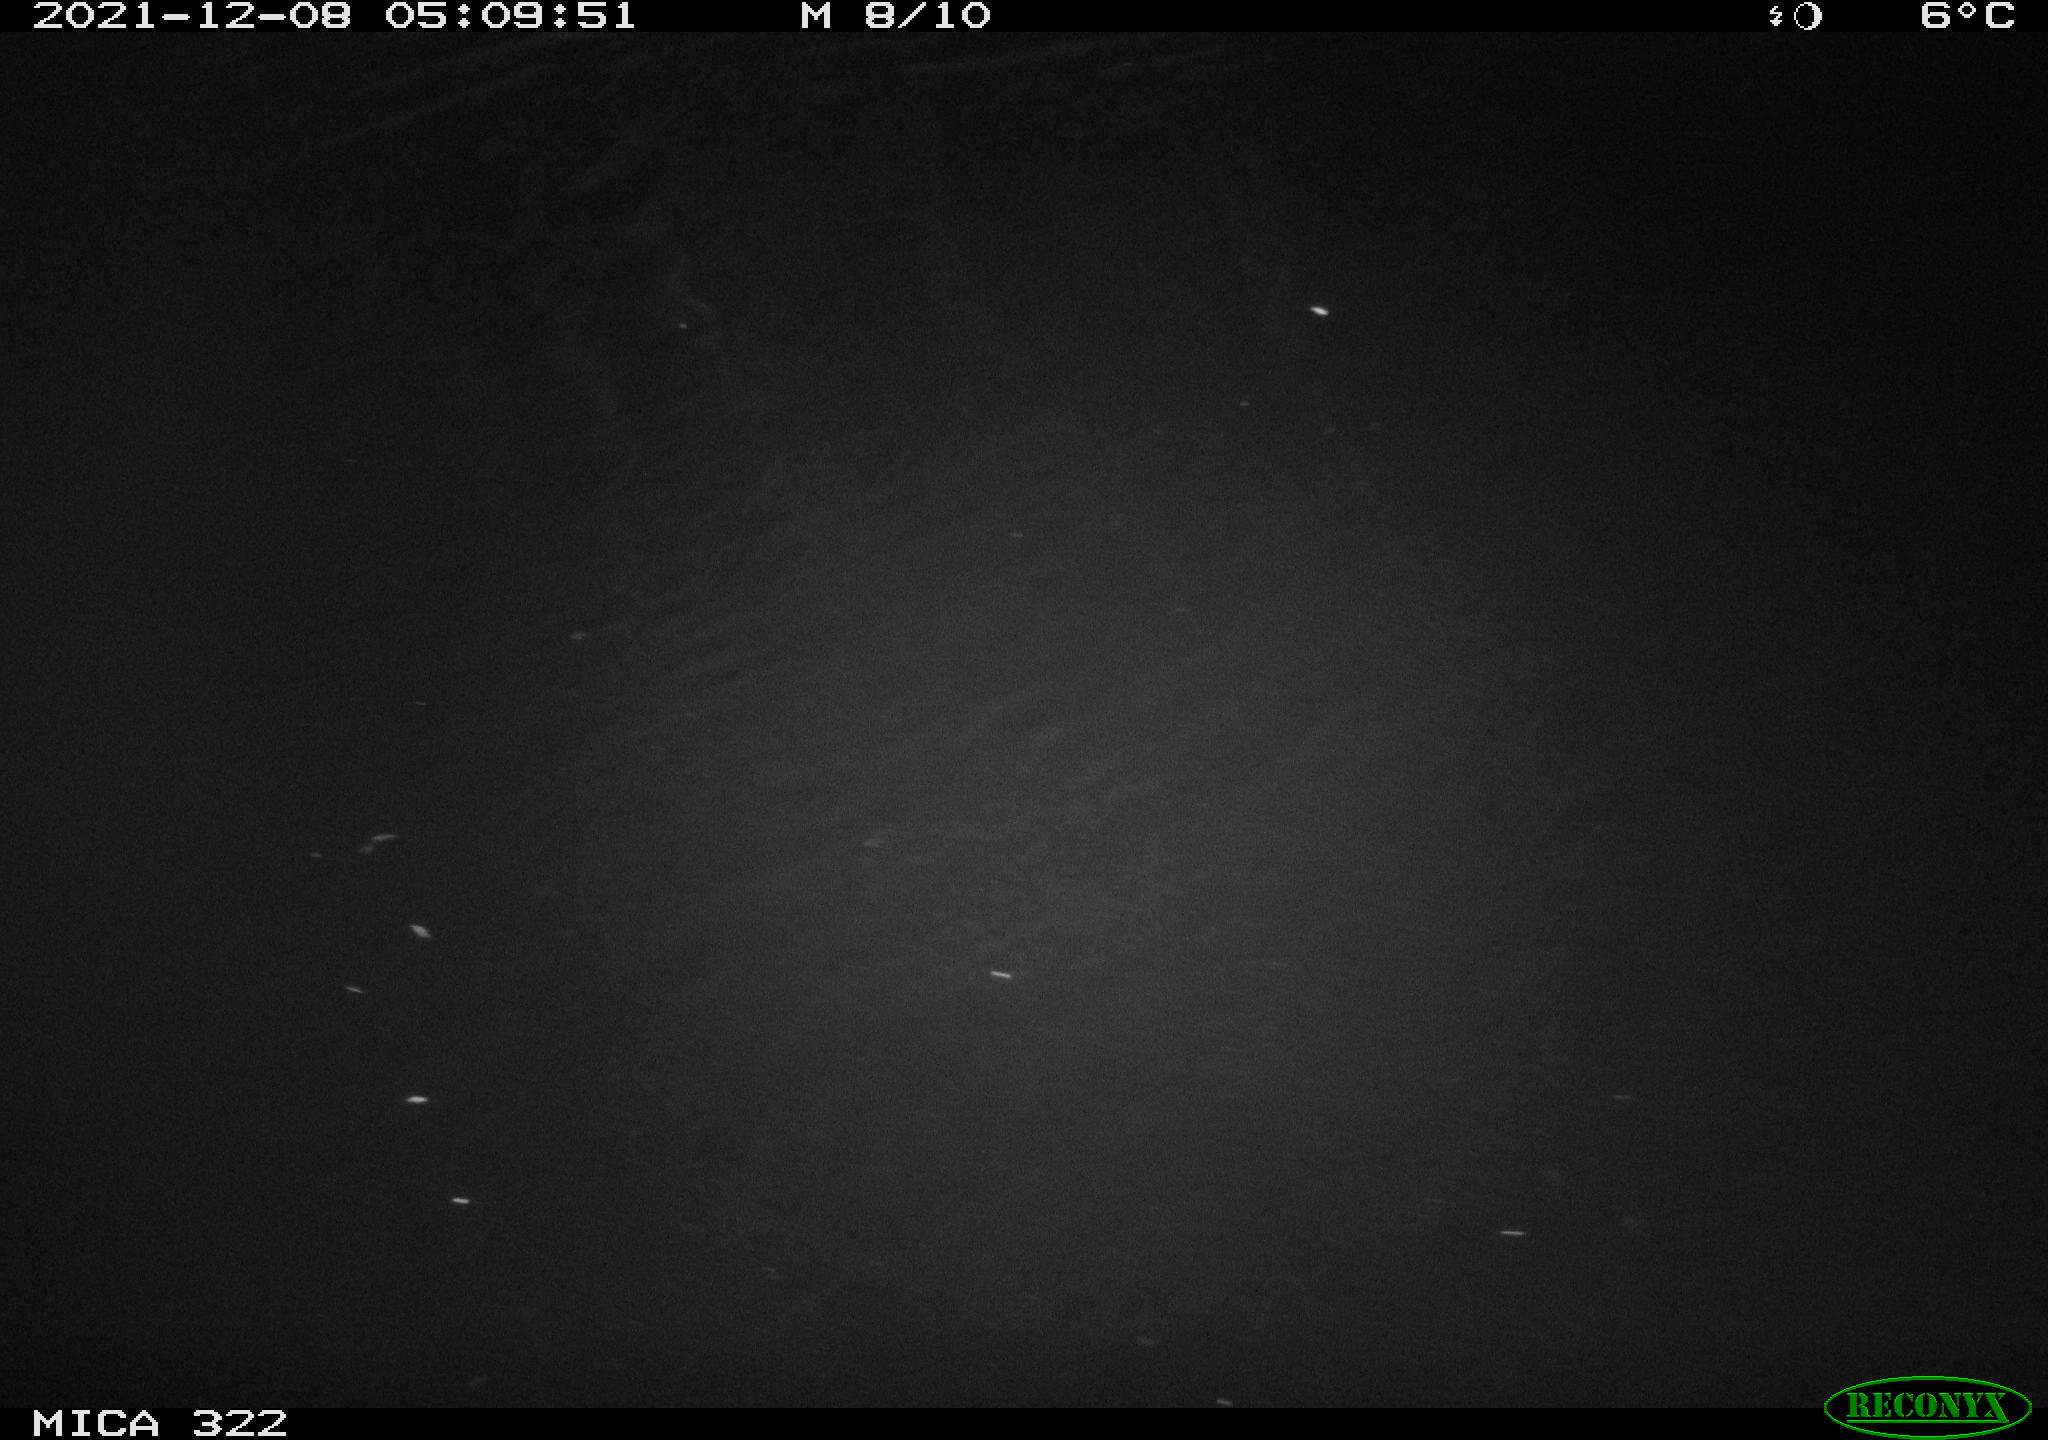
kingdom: Animalia
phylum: Chordata
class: Mammalia
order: Rodentia
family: Muridae
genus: Rattus
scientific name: Rattus norvegicus
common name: Brown rat
